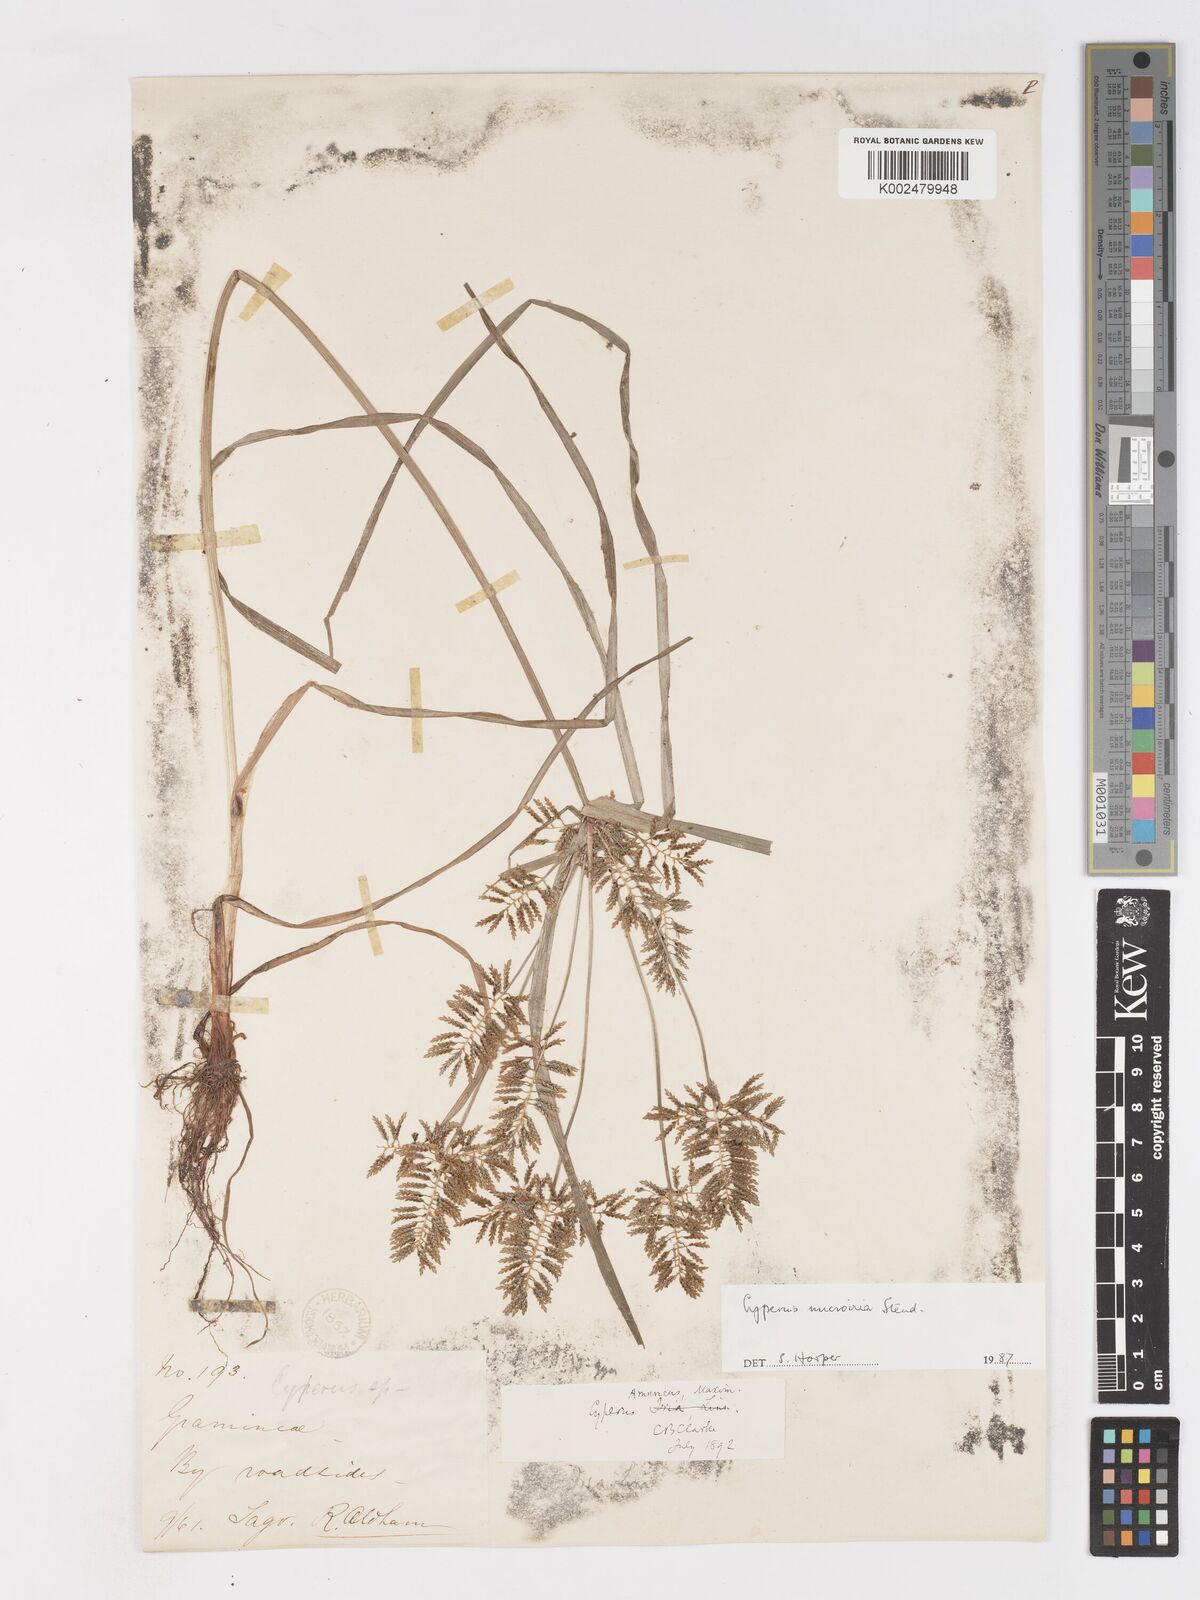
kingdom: Plantae
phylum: Tracheophyta
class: Liliopsida
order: Poales
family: Cyperaceae
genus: Cyperus
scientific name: Cyperus microiria
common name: Asian flatsedge
